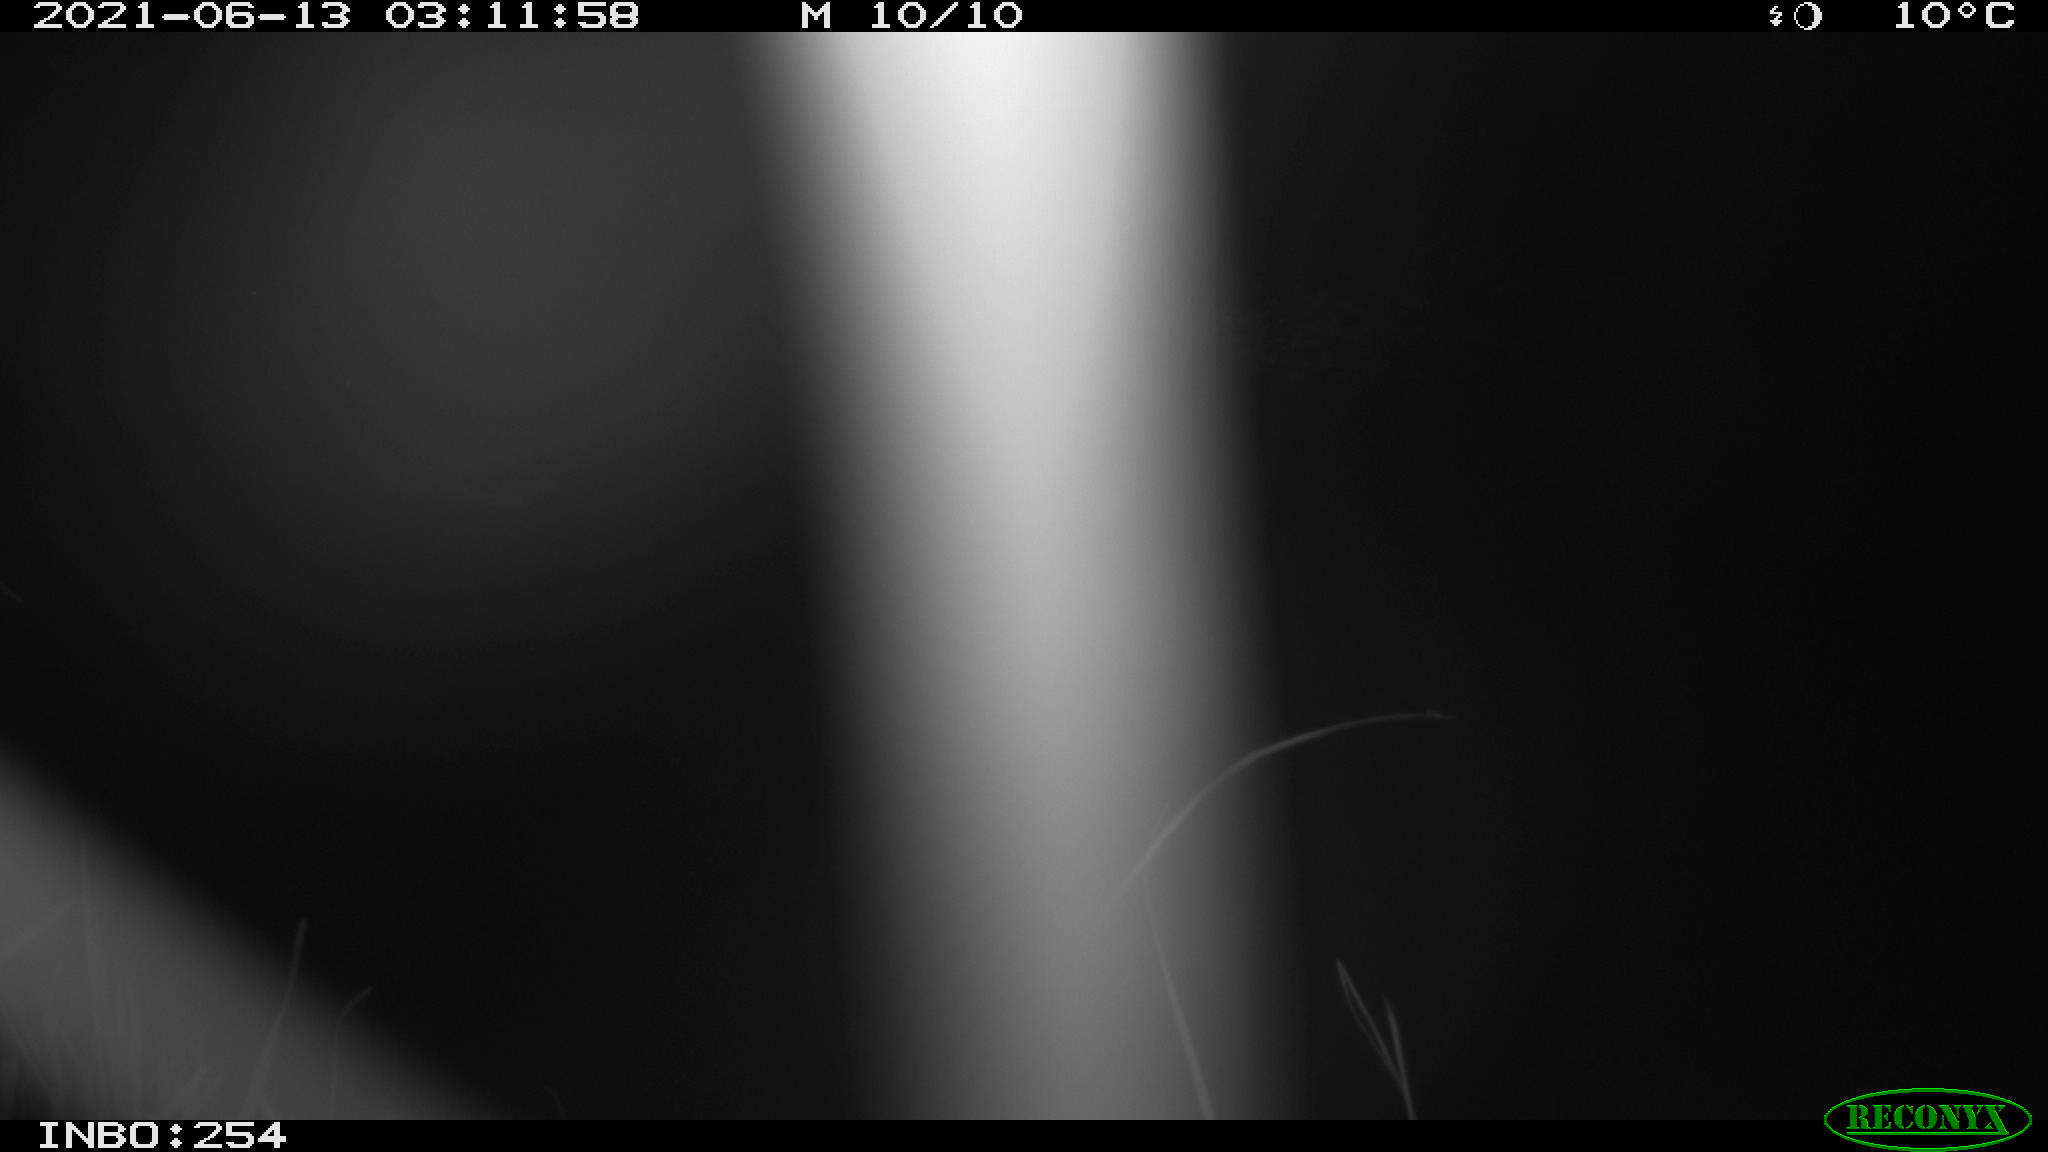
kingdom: Animalia
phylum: Chordata
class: Aves
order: Anseriformes
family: Anatidae
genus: Anas
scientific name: Anas platyrhynchos
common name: Mallard
